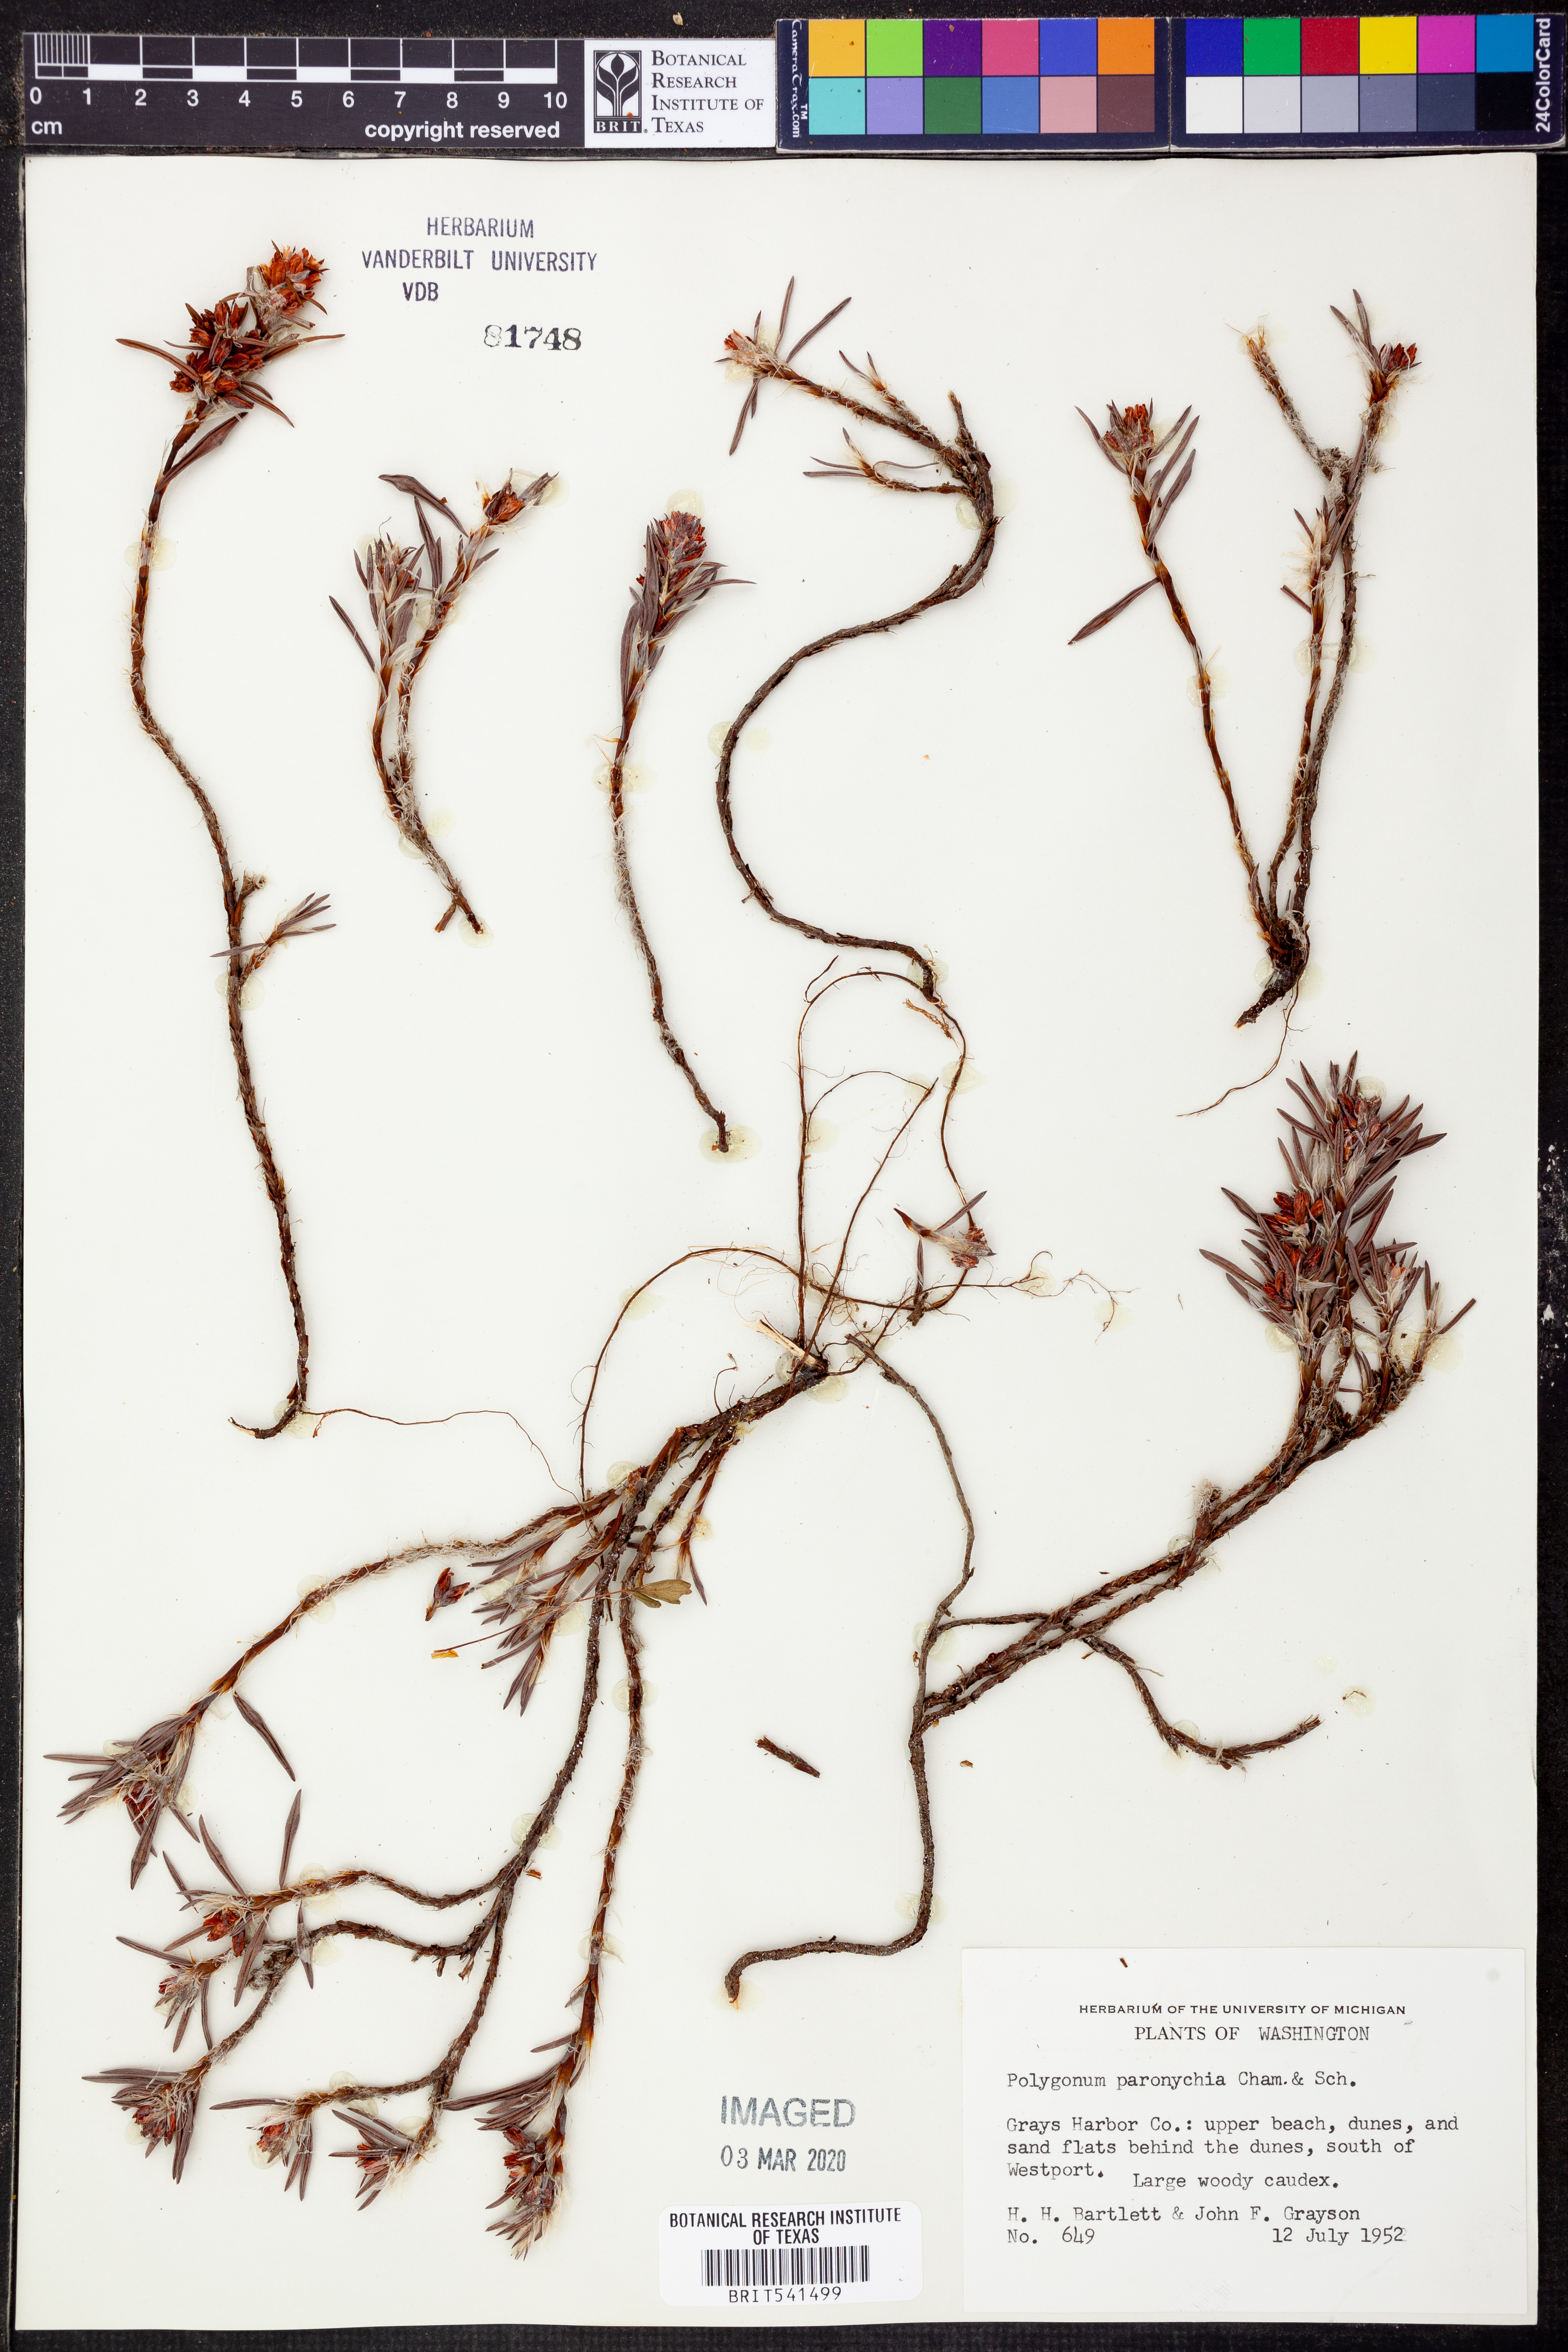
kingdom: Plantae
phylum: Tracheophyta
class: Magnoliopsida
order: Caryophyllales
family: Polygonaceae
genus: Polygonum
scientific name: Polygonum paronychia
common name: Dune knotweed
